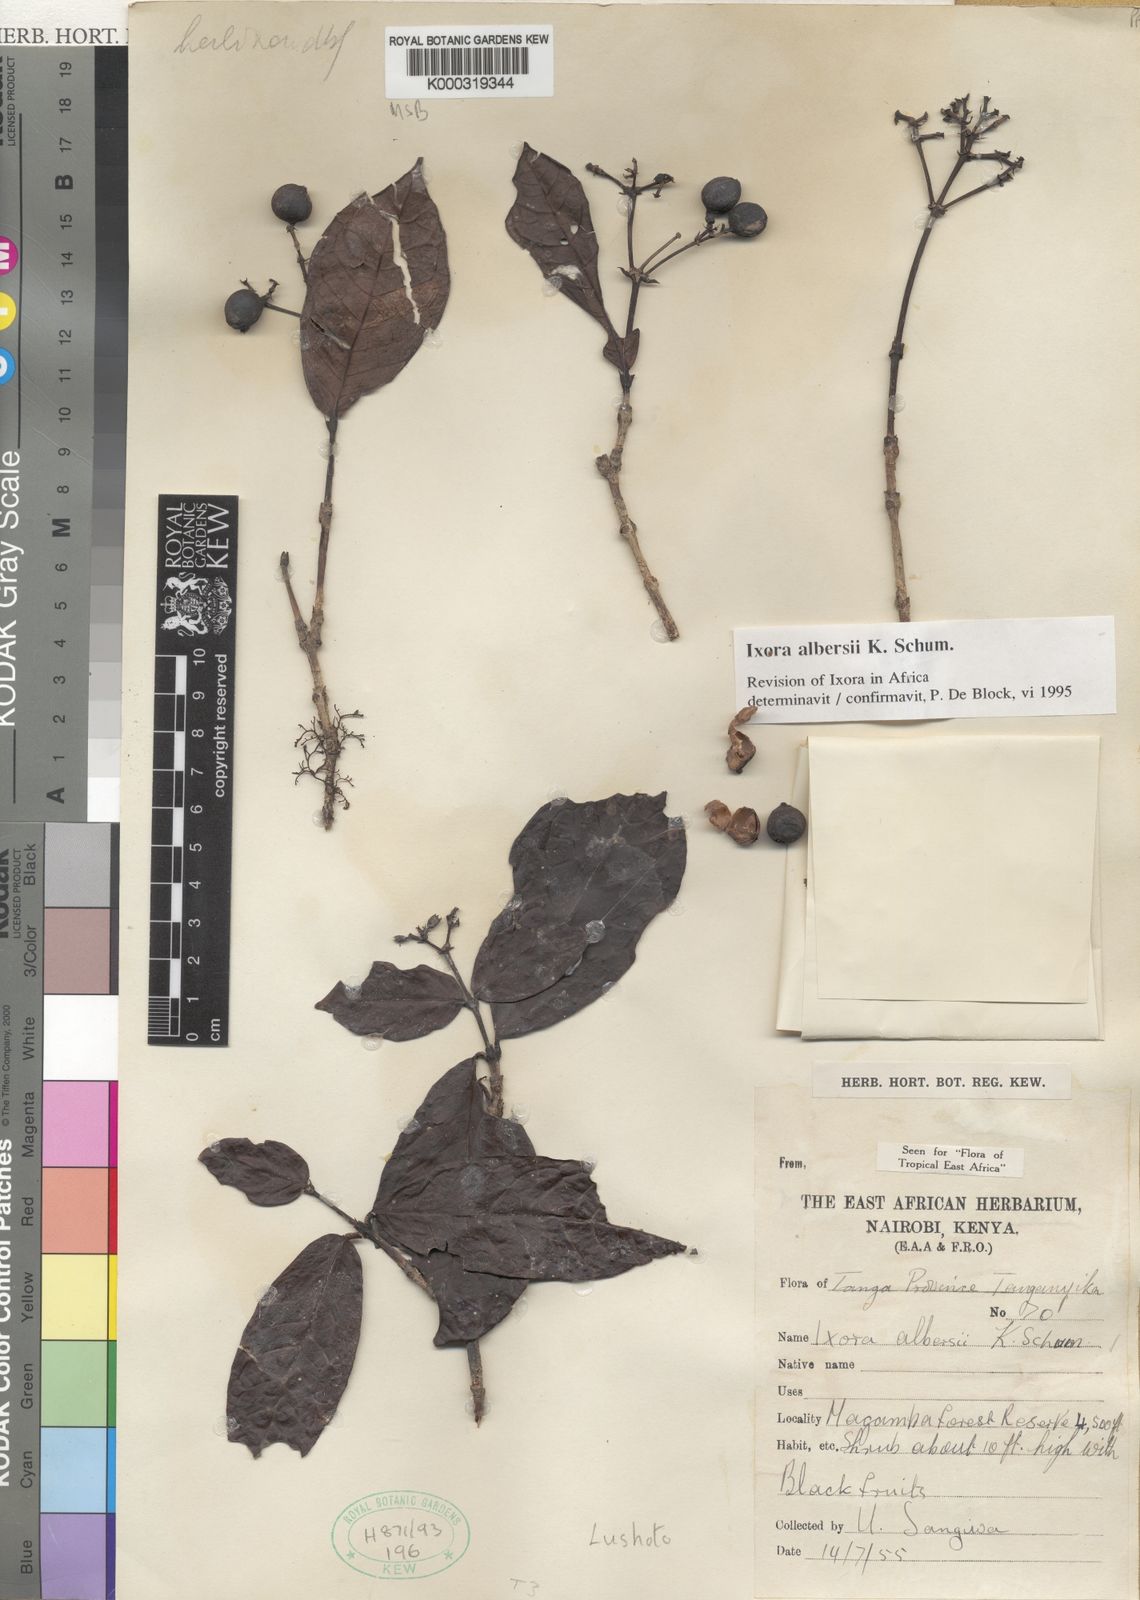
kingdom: Plantae
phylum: Tracheophyta
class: Magnoliopsida
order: Gentianales
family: Rubiaceae
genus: Ixora
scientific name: Ixora albersii
